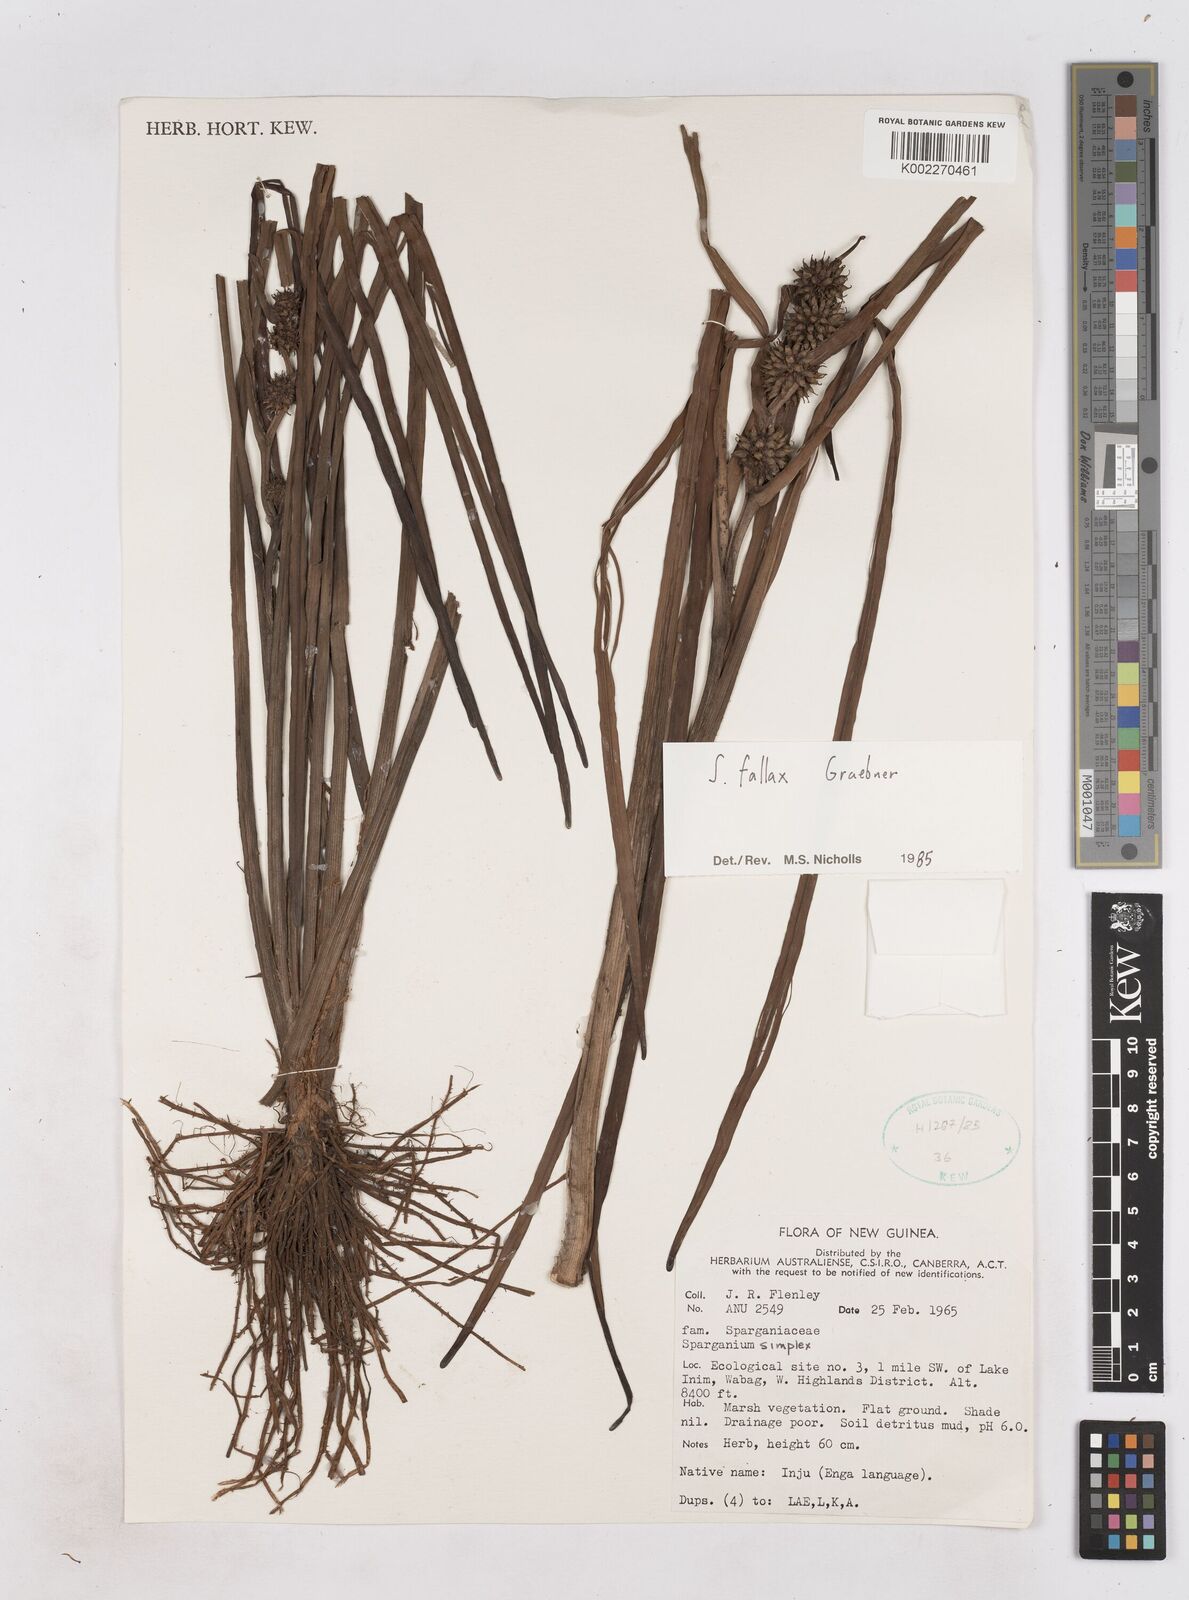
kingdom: Plantae
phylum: Tracheophyta
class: Liliopsida
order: Poales
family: Typhaceae
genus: Sparganium
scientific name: Sparganium fallax
